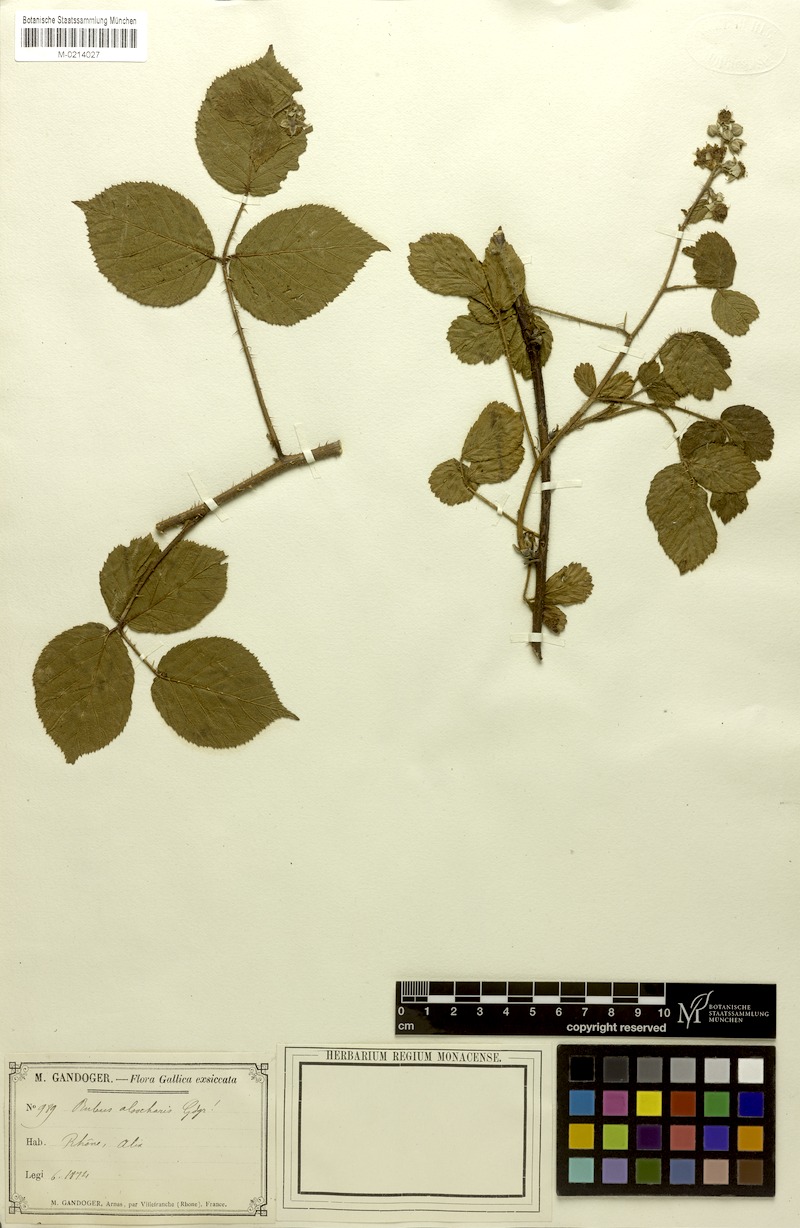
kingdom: Plantae
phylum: Tracheophyta
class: Magnoliopsida
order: Rosales
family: Rosaceae
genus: Rubus
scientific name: Rubus
